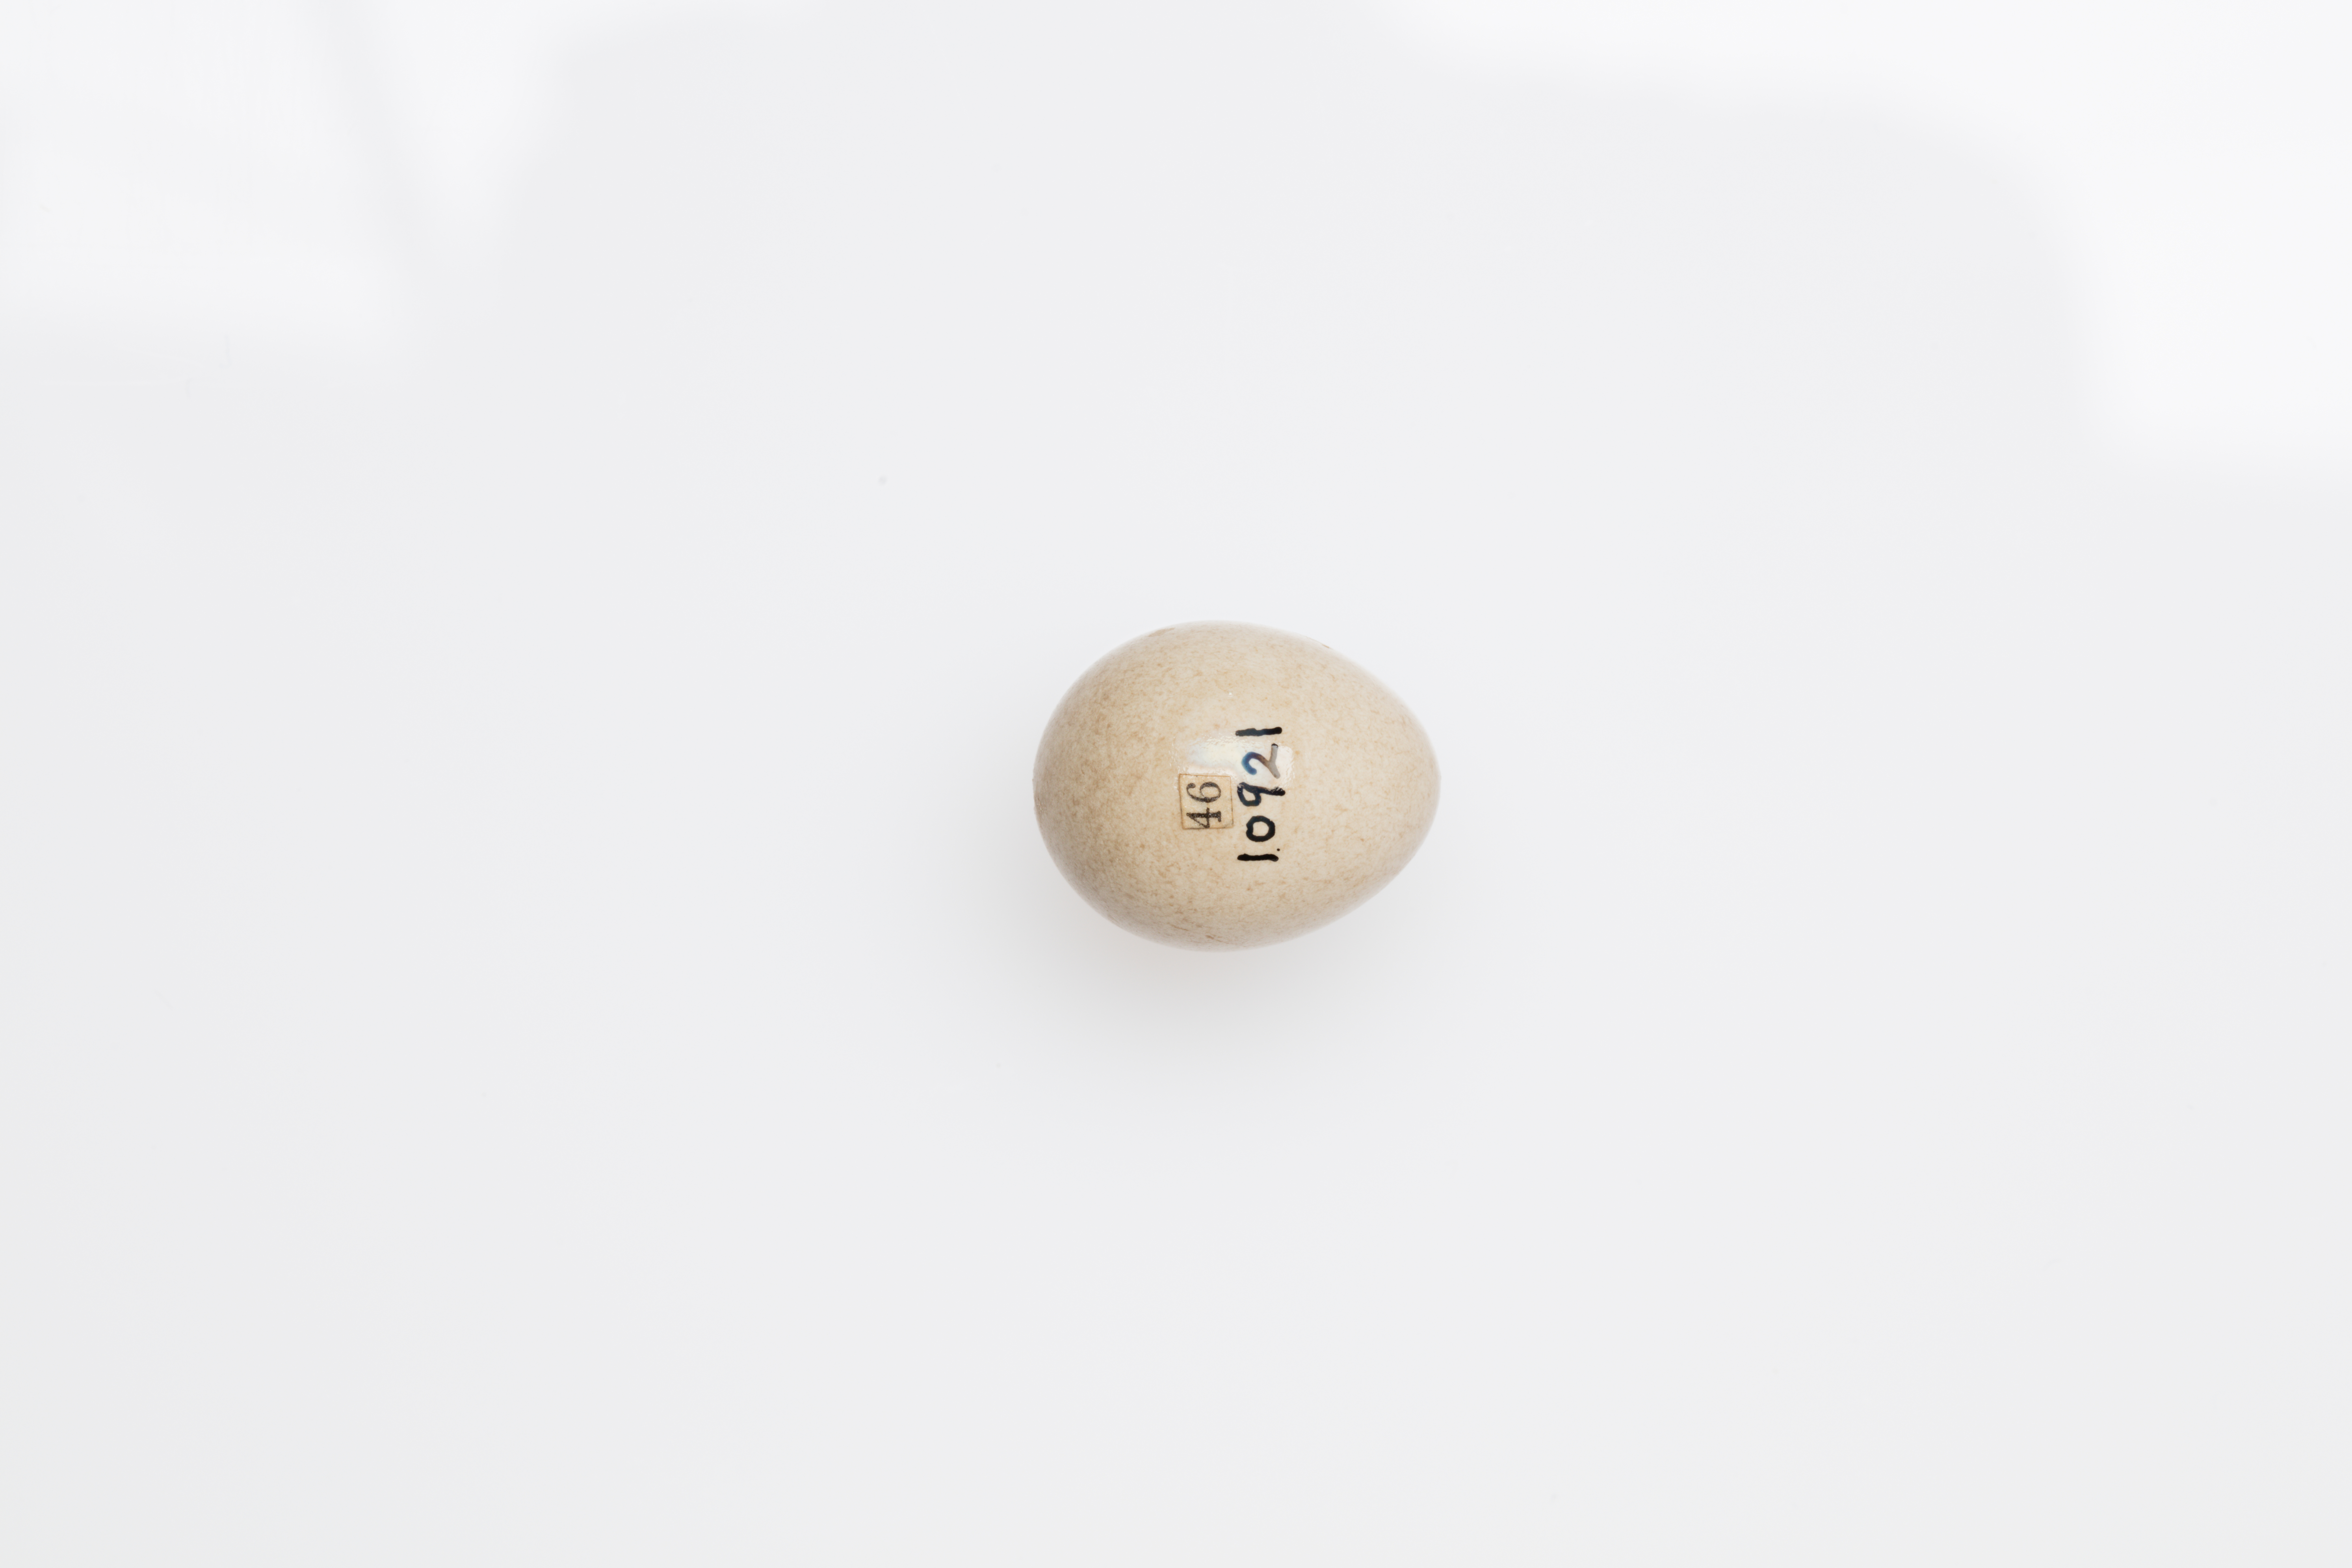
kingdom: Animalia
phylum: Chordata
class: Aves
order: Passeriformes
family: Motacillidae
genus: Motacilla
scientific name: Motacilla cinerea
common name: Grey wagtail
